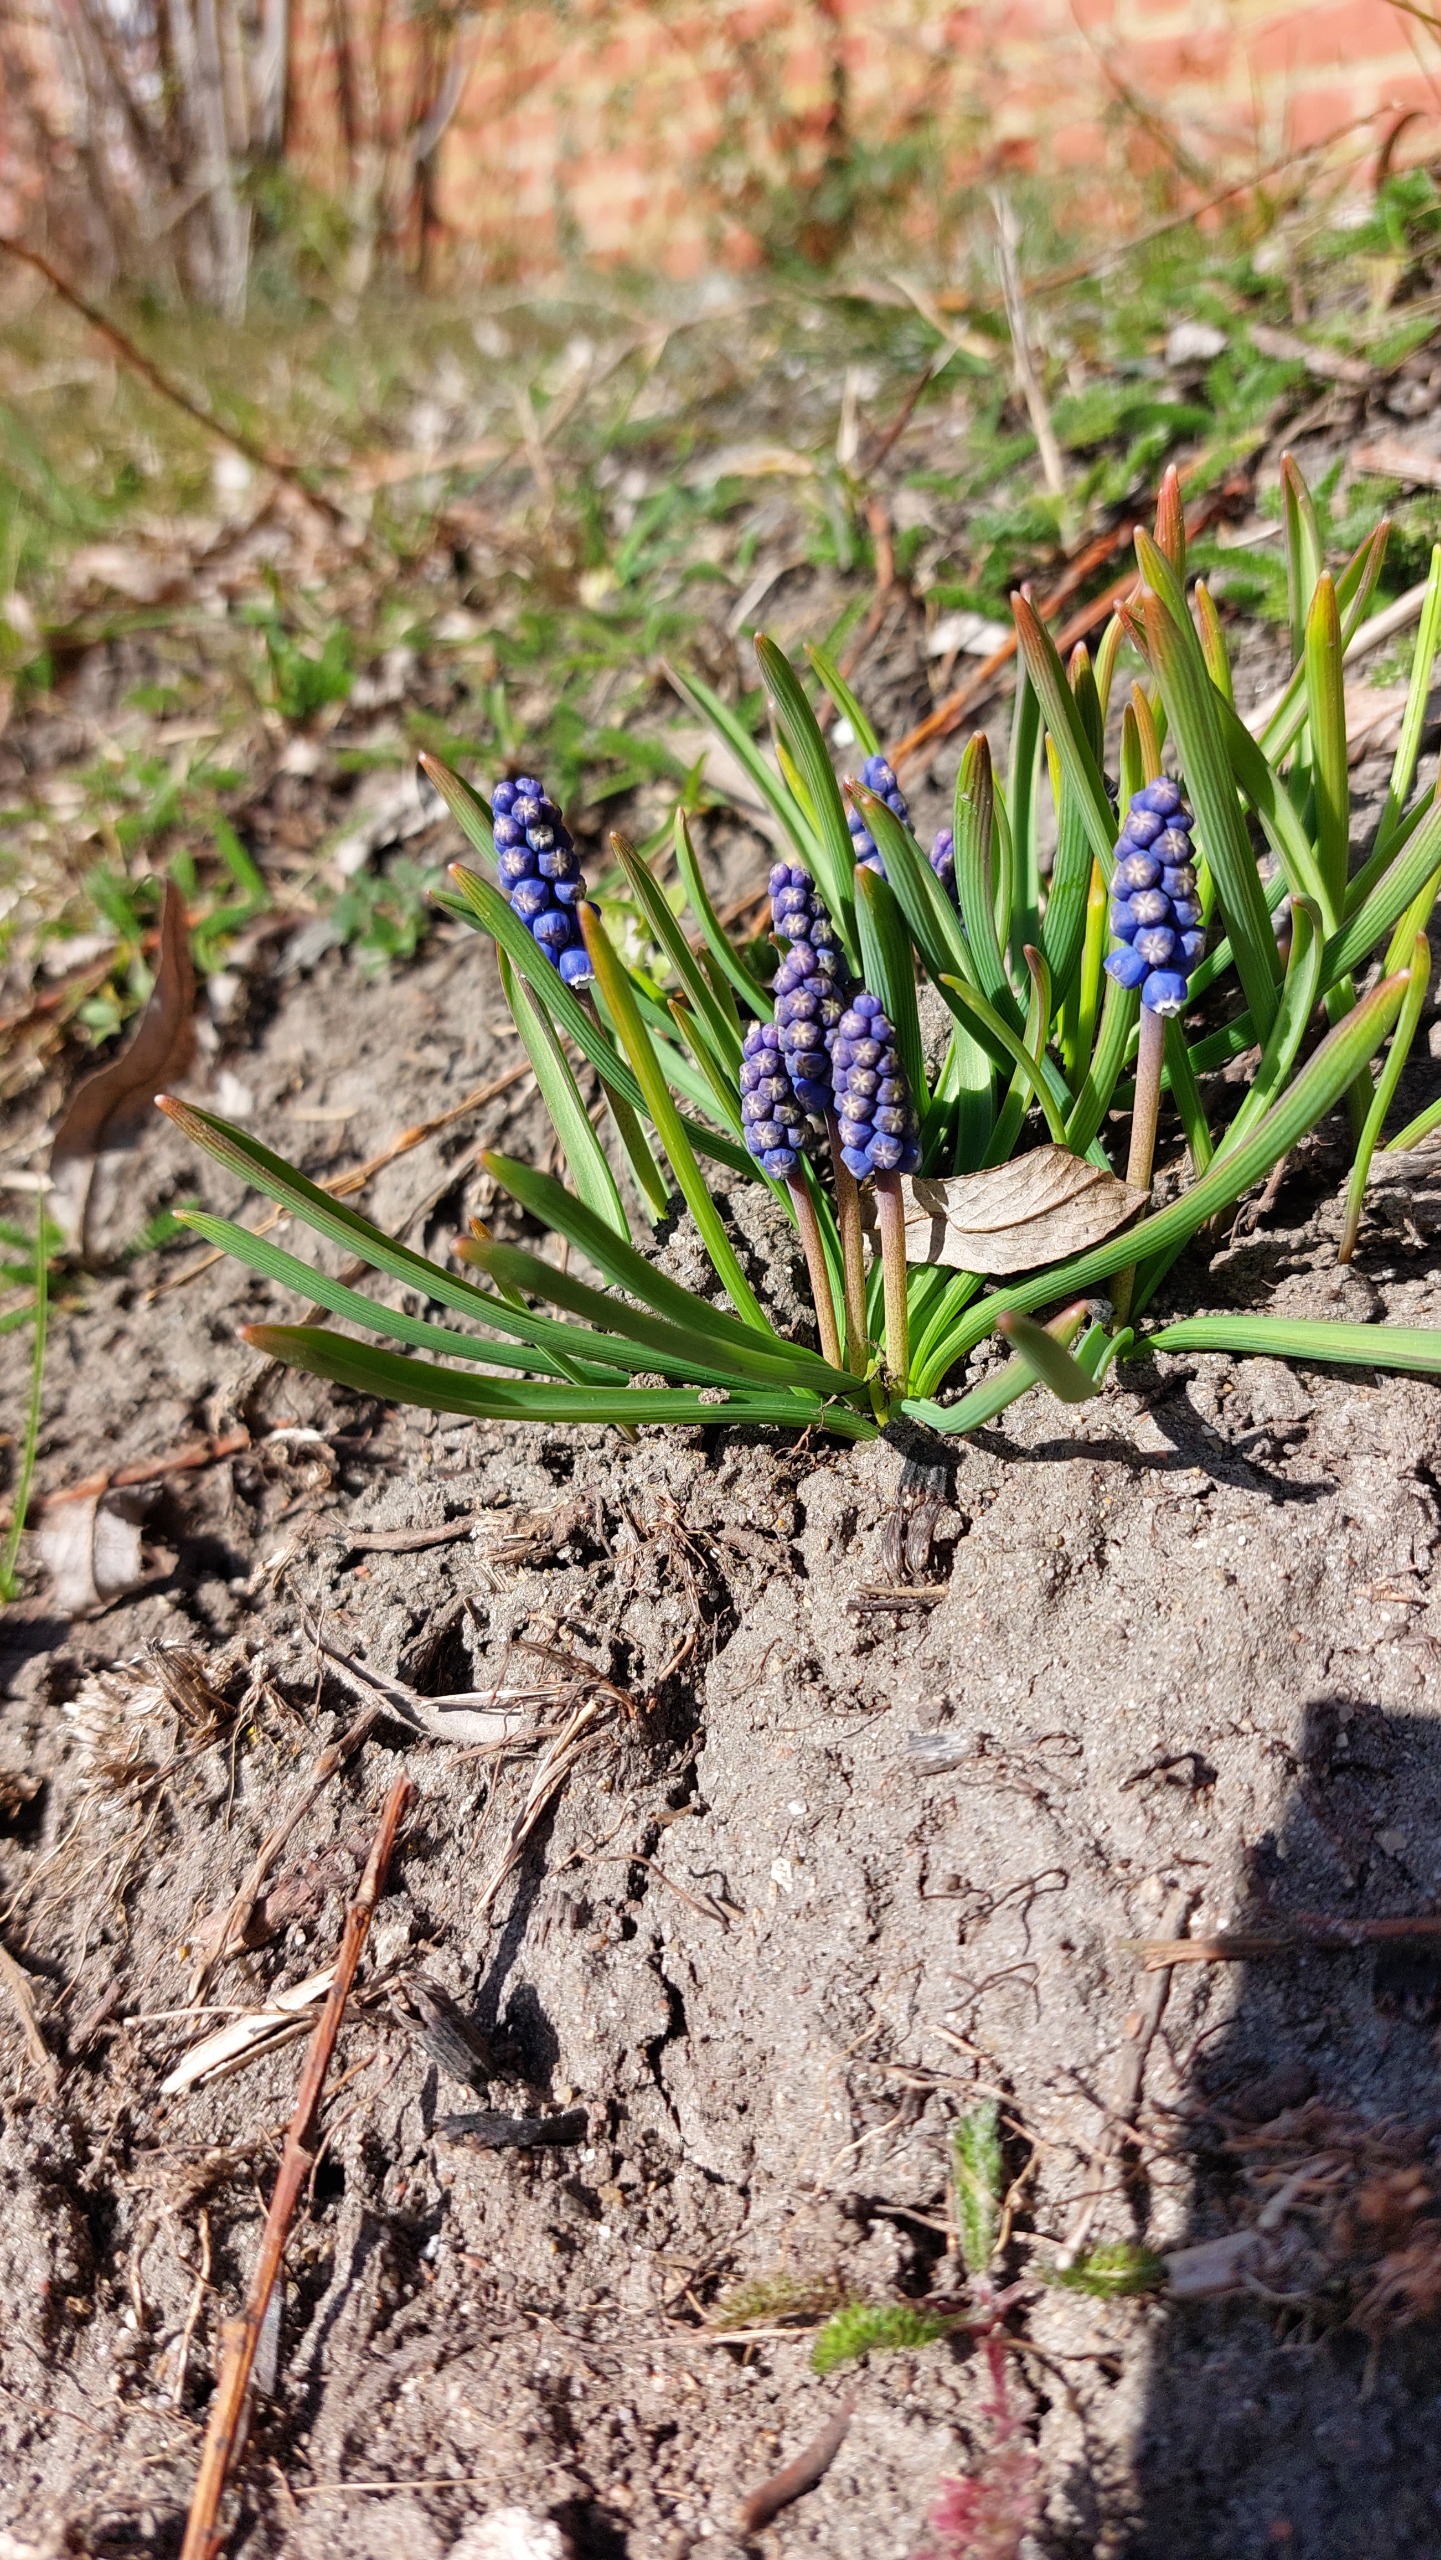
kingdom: Plantae
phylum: Tracheophyta
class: Liliopsida
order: Asparagales
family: Asparagaceae
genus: Muscari
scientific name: Muscari botryoides
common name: Perlehyacint
